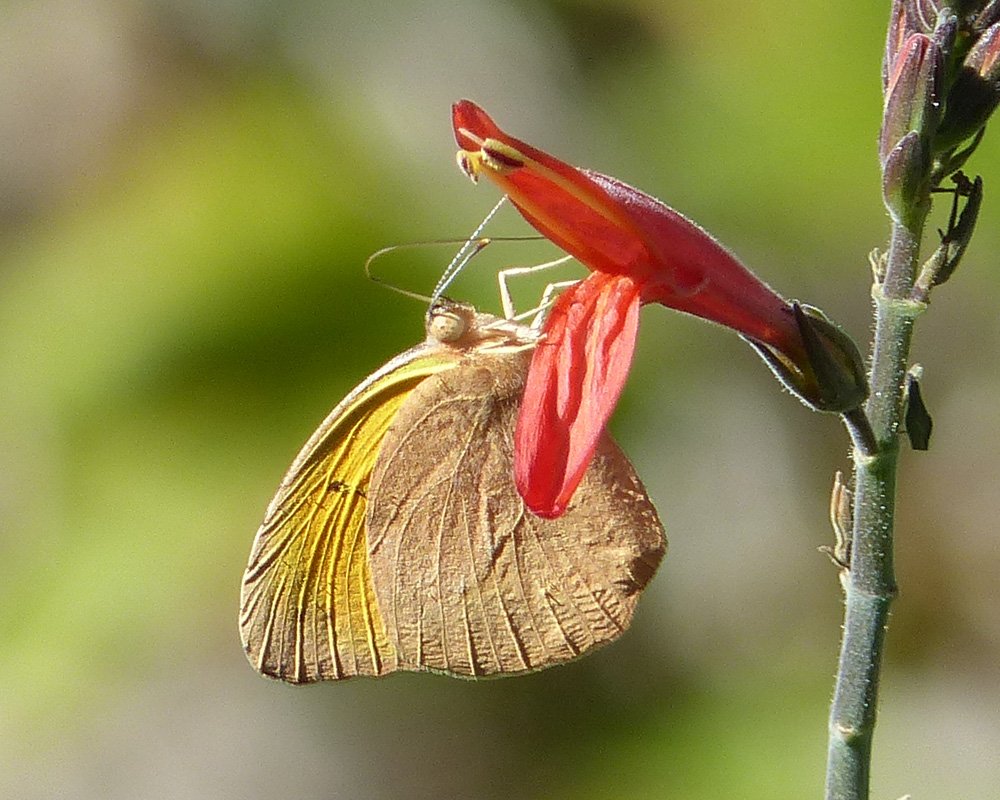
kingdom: Animalia
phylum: Arthropoda
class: Insecta
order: Lepidoptera
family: Pieridae
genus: Abaeis
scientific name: Abaeis nicippe
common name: Sleepy Orange
